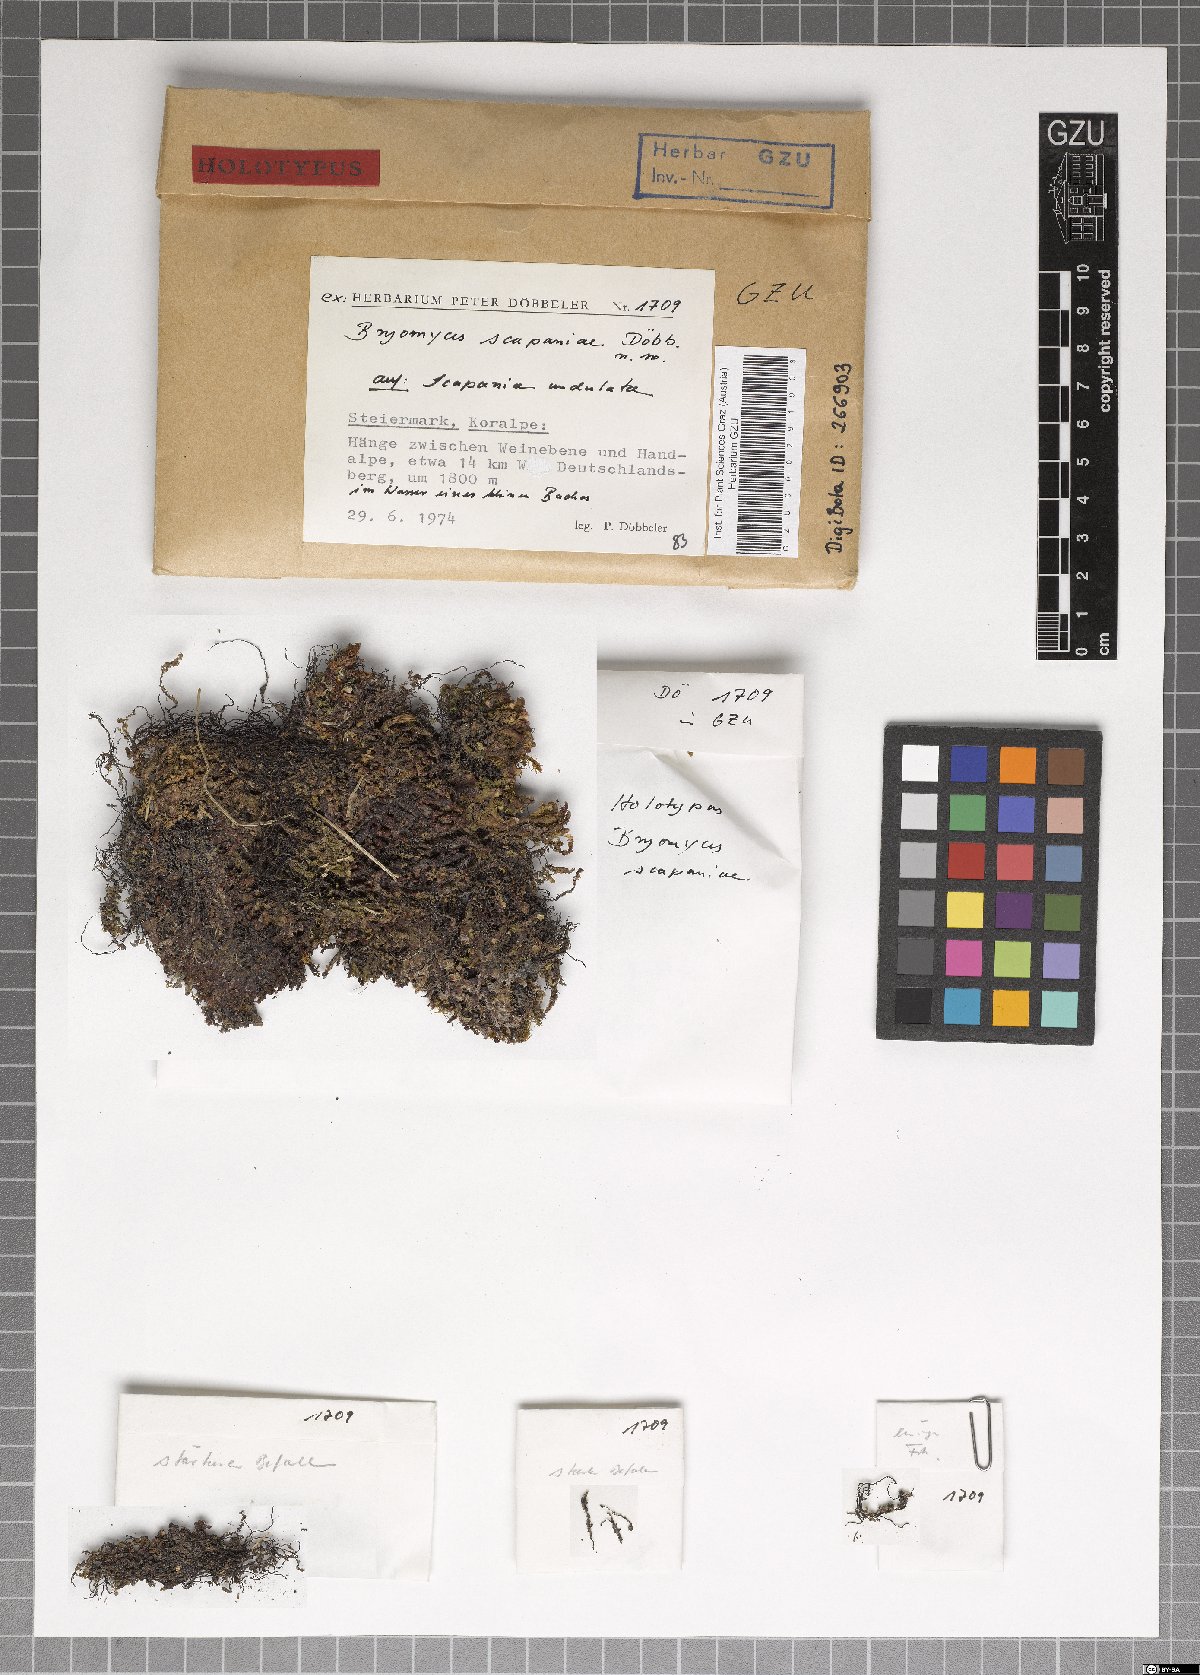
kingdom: Fungi
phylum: Ascomycota
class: Dothideomycetes
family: Pseudoperisporiaceae
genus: Bryomyces
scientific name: Bryomyces scapaniae
